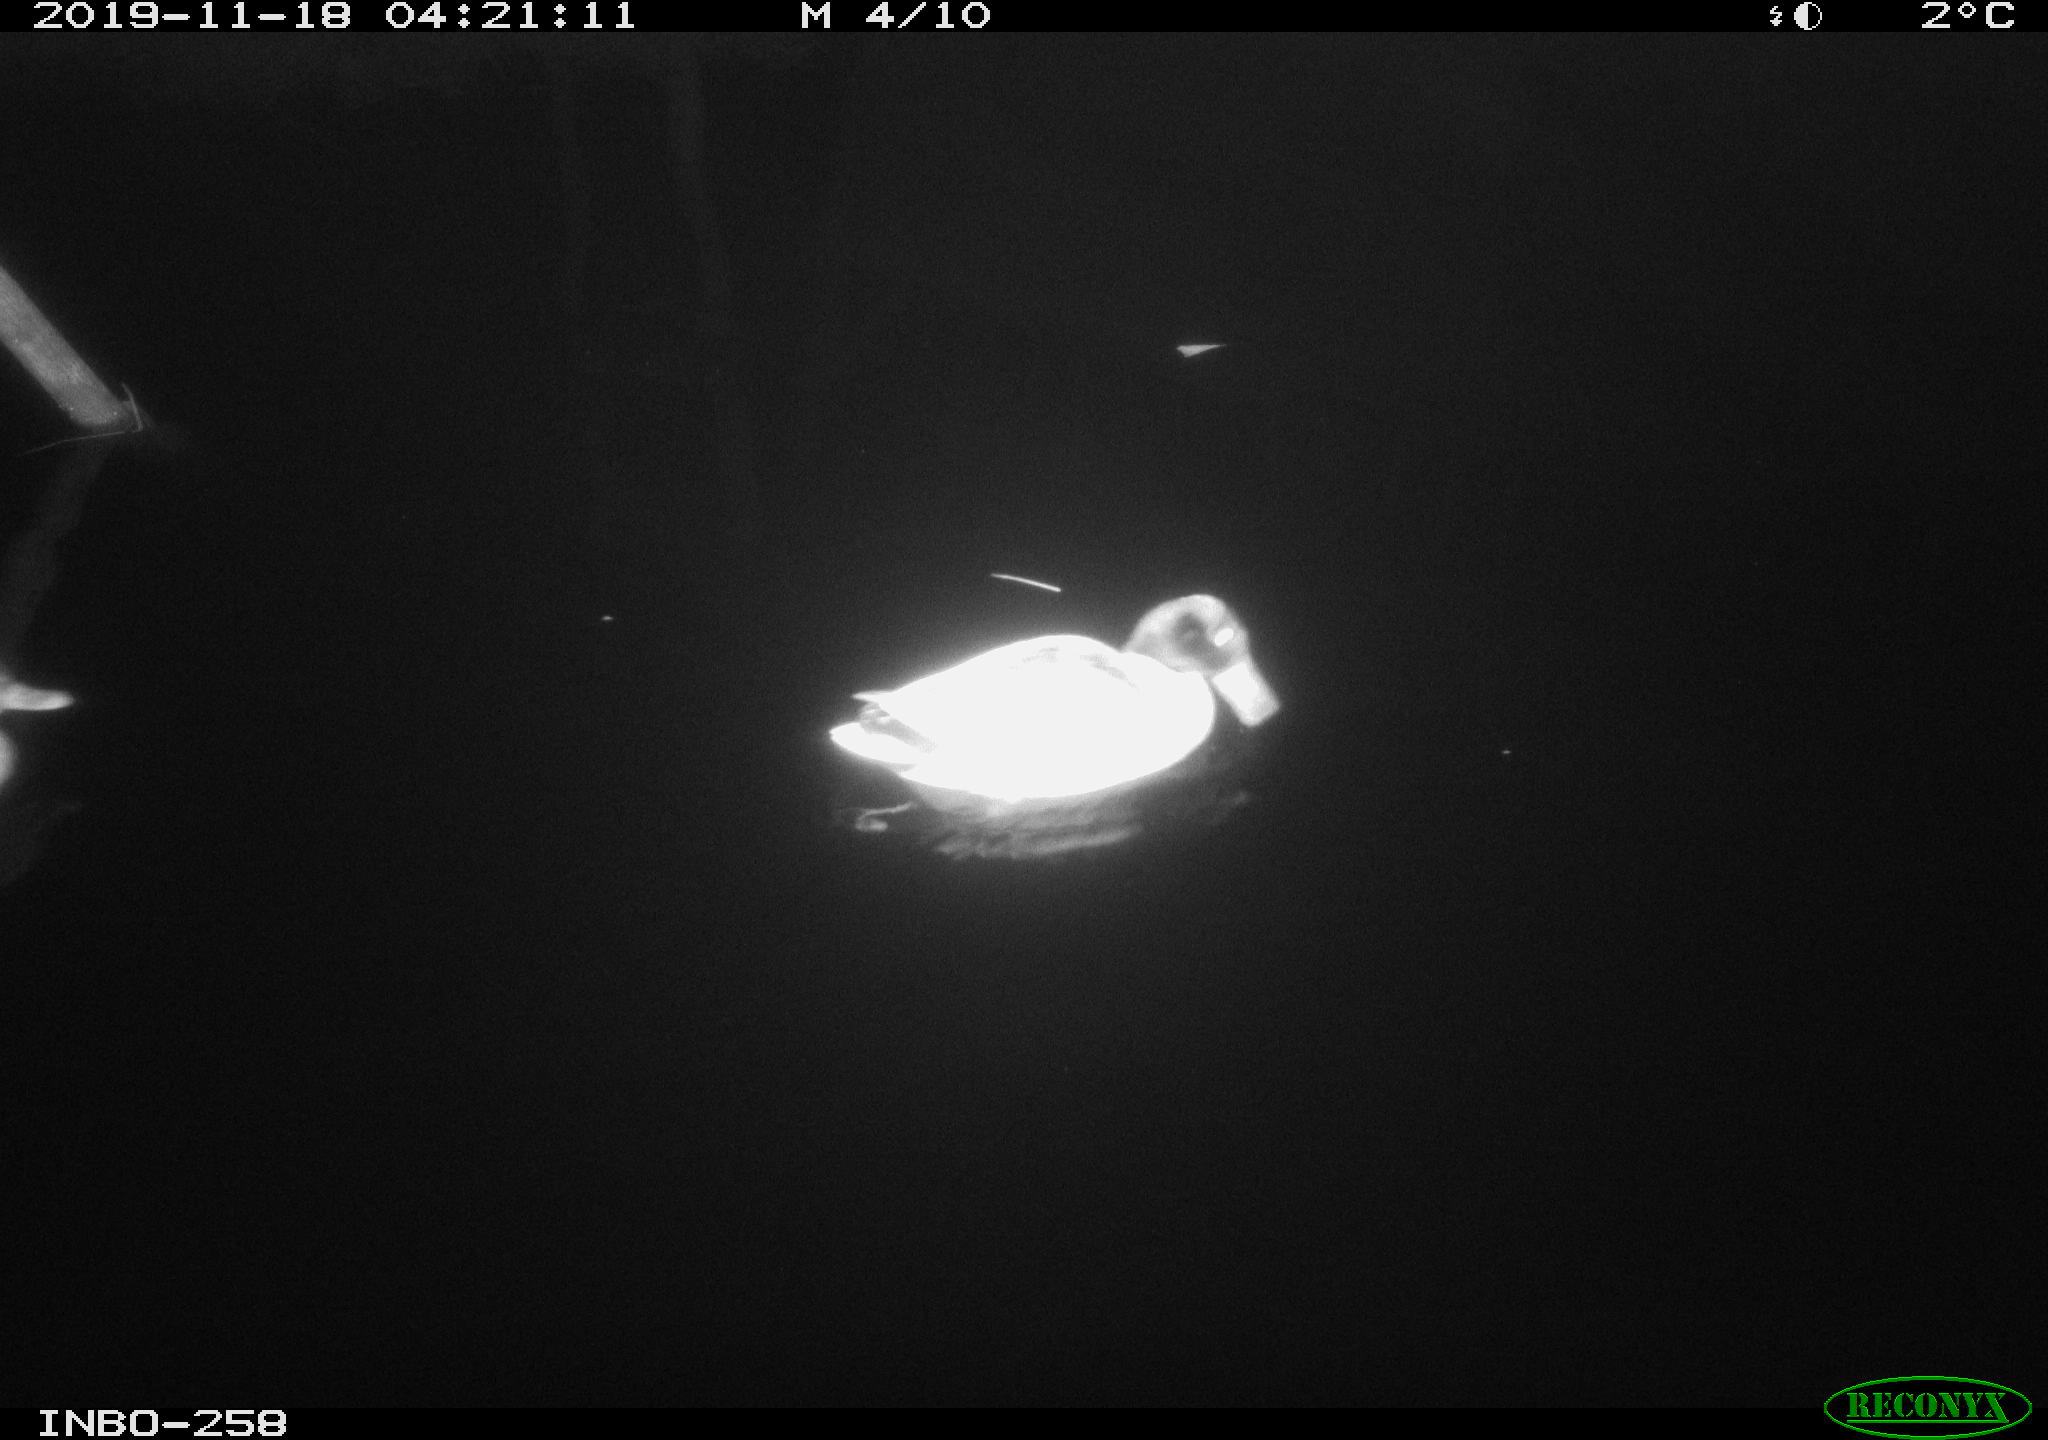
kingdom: Animalia
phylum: Chordata
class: Aves
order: Anseriformes
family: Anatidae
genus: Anas
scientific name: Anas platyrhynchos
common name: Mallard
